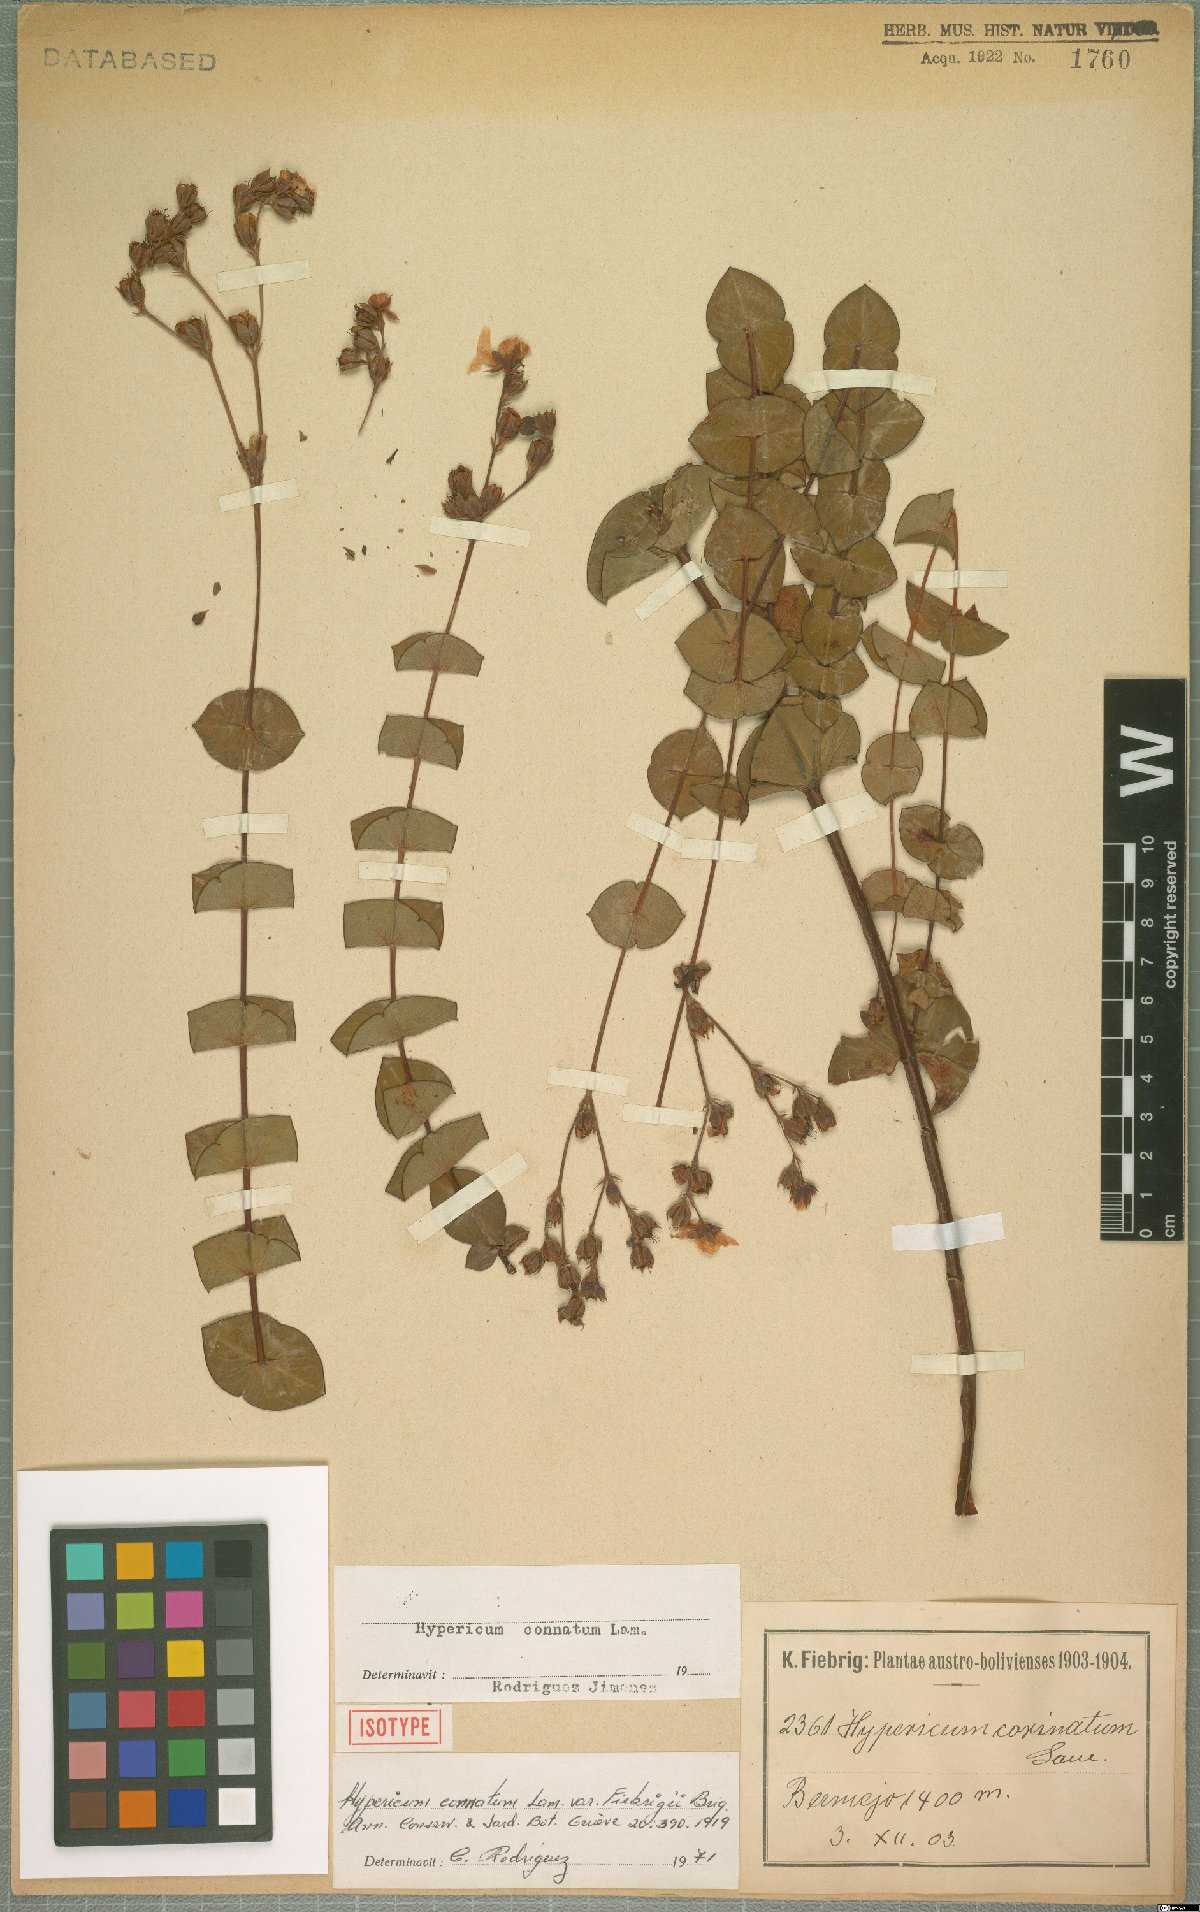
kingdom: Plantae
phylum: Tracheophyta
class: Magnoliopsida
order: Malpighiales
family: Hypericaceae
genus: Hypericum
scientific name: Hypericum connatum
